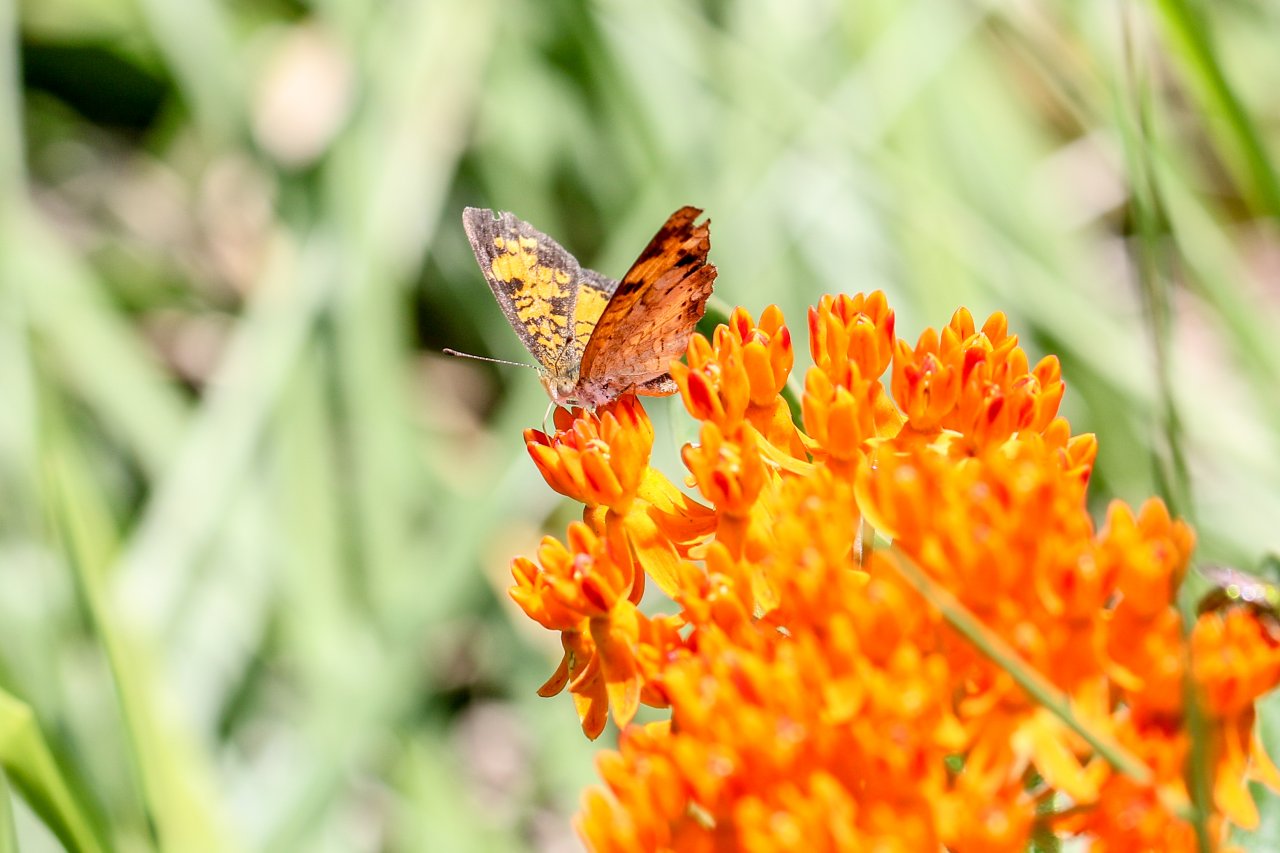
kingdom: Animalia
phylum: Arthropoda
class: Insecta
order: Lepidoptera
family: Nymphalidae
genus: Phyciodes
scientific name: Phyciodes tharos
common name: Pearl Crescent
